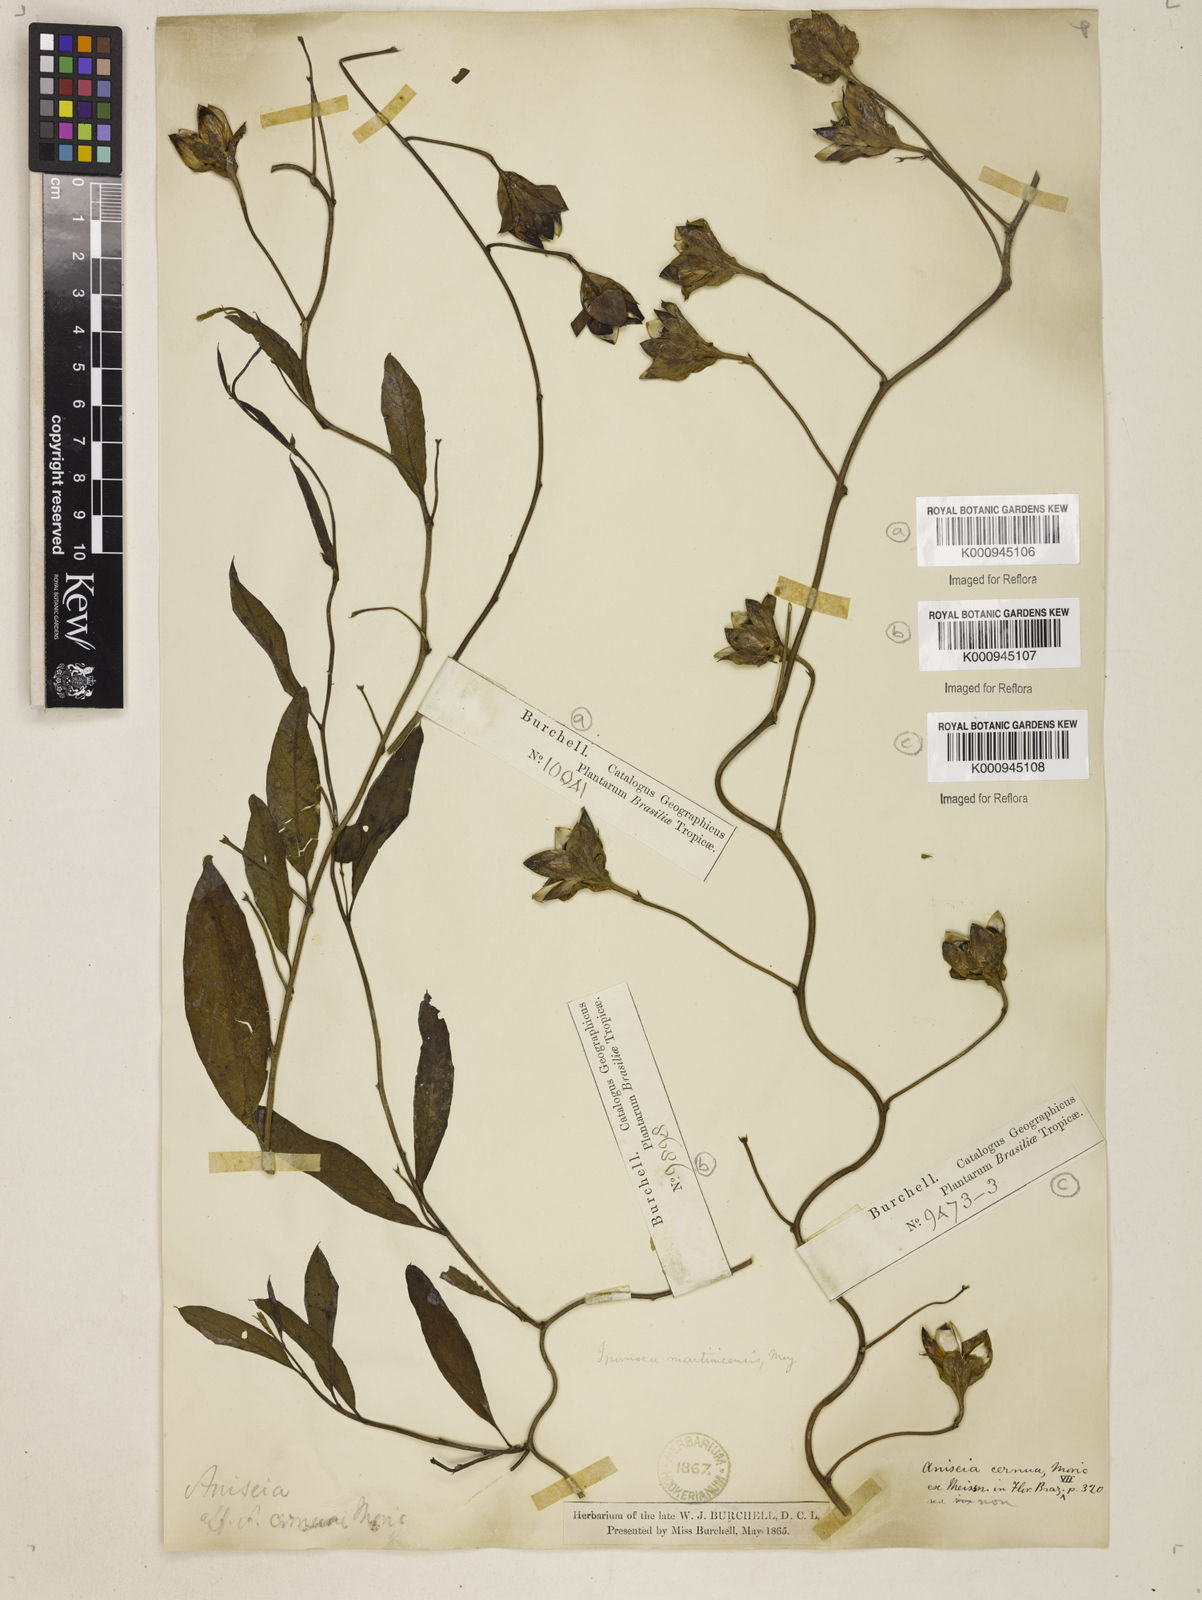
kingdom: Plantae
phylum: Tracheophyta
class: Magnoliopsida
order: Solanales
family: Convolvulaceae
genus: Aniseia
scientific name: Aniseia martinicensis
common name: Kulayadambu
